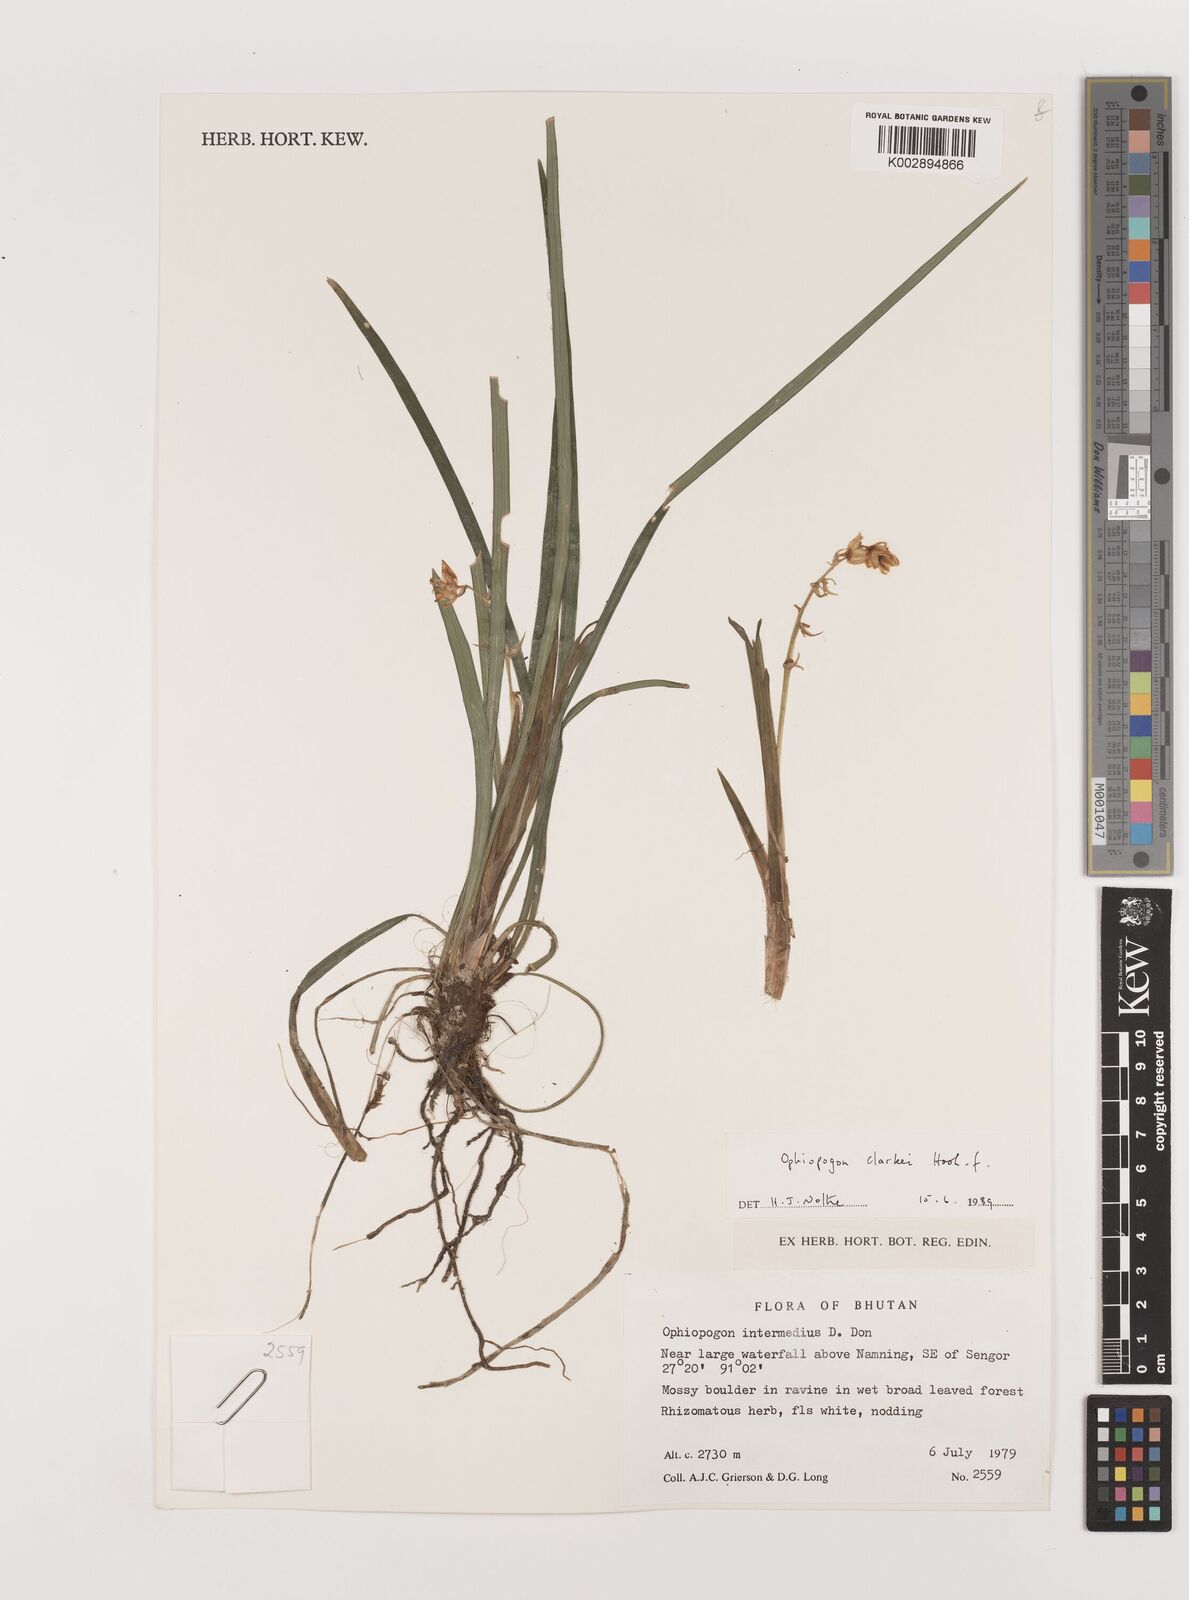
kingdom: Plantae
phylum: Tracheophyta
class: Liliopsida
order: Asparagales
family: Asparagaceae
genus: Ophiopogon
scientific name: Ophiopogon clarkei
